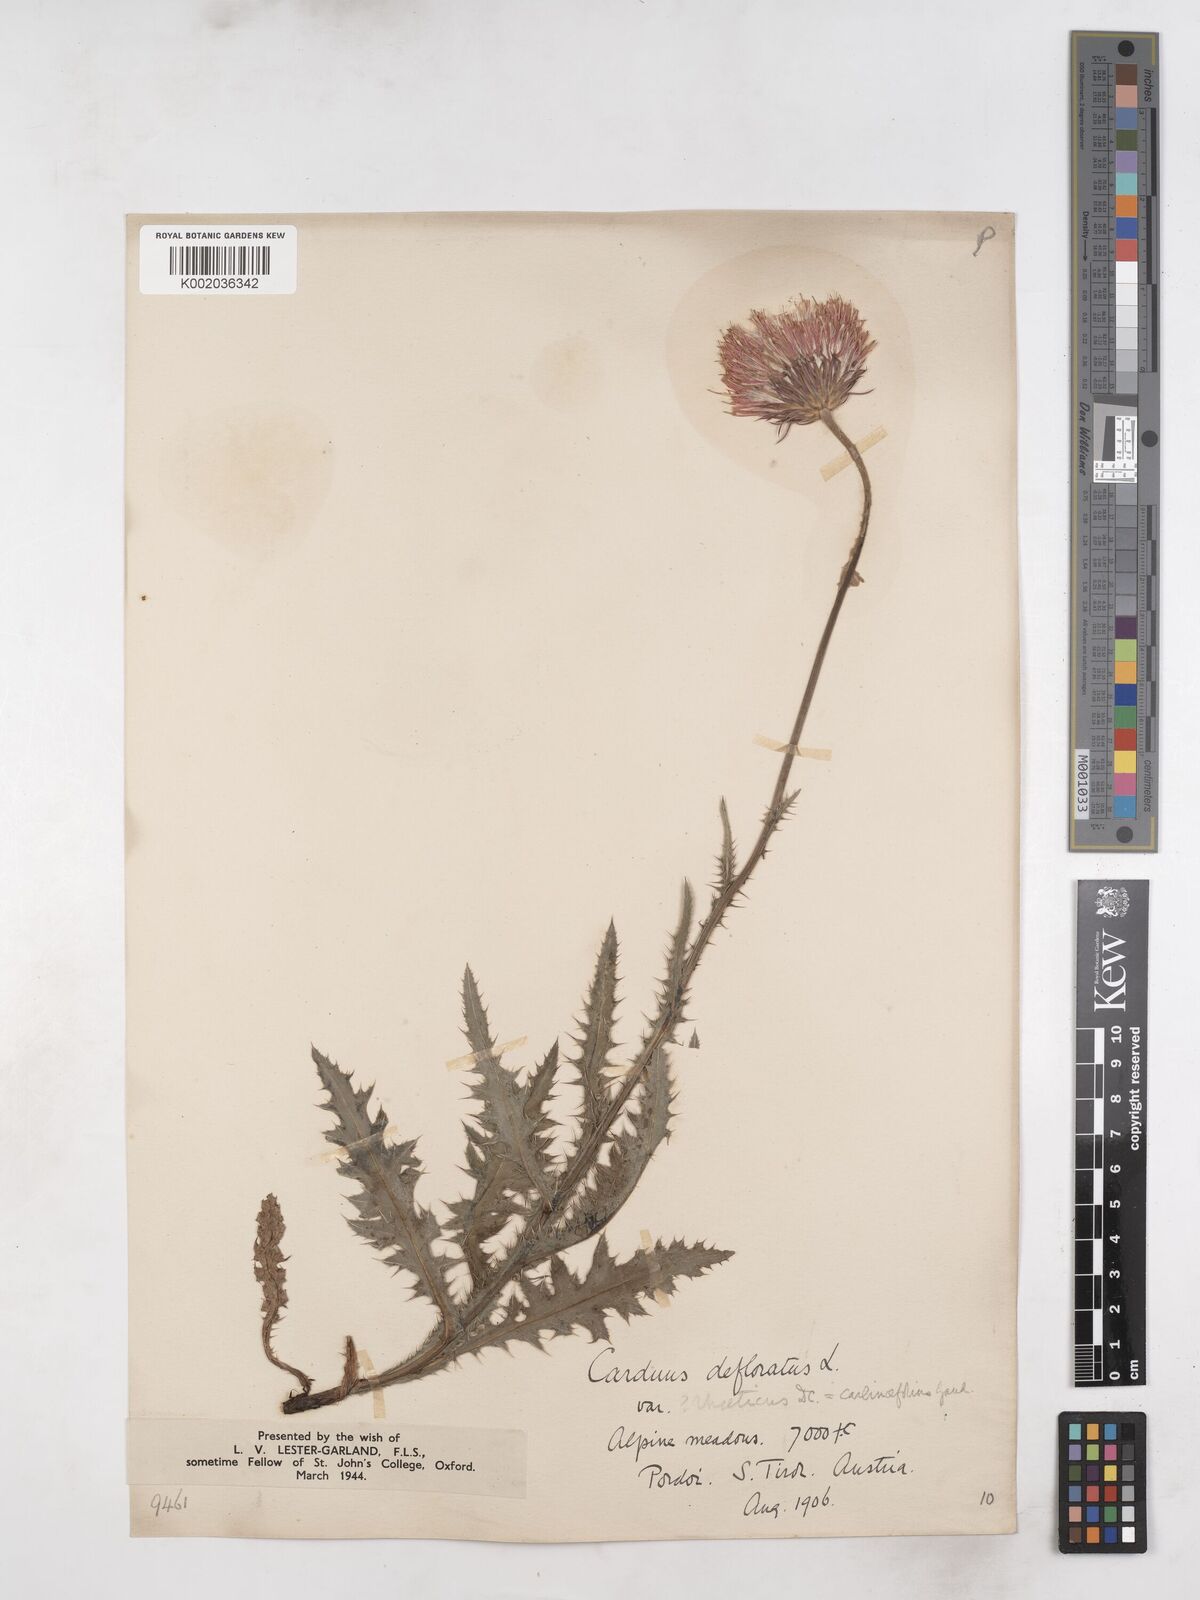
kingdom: Plantae
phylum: Tracheophyta
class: Magnoliopsida
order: Asterales
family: Asteraceae
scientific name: Asteraceae
